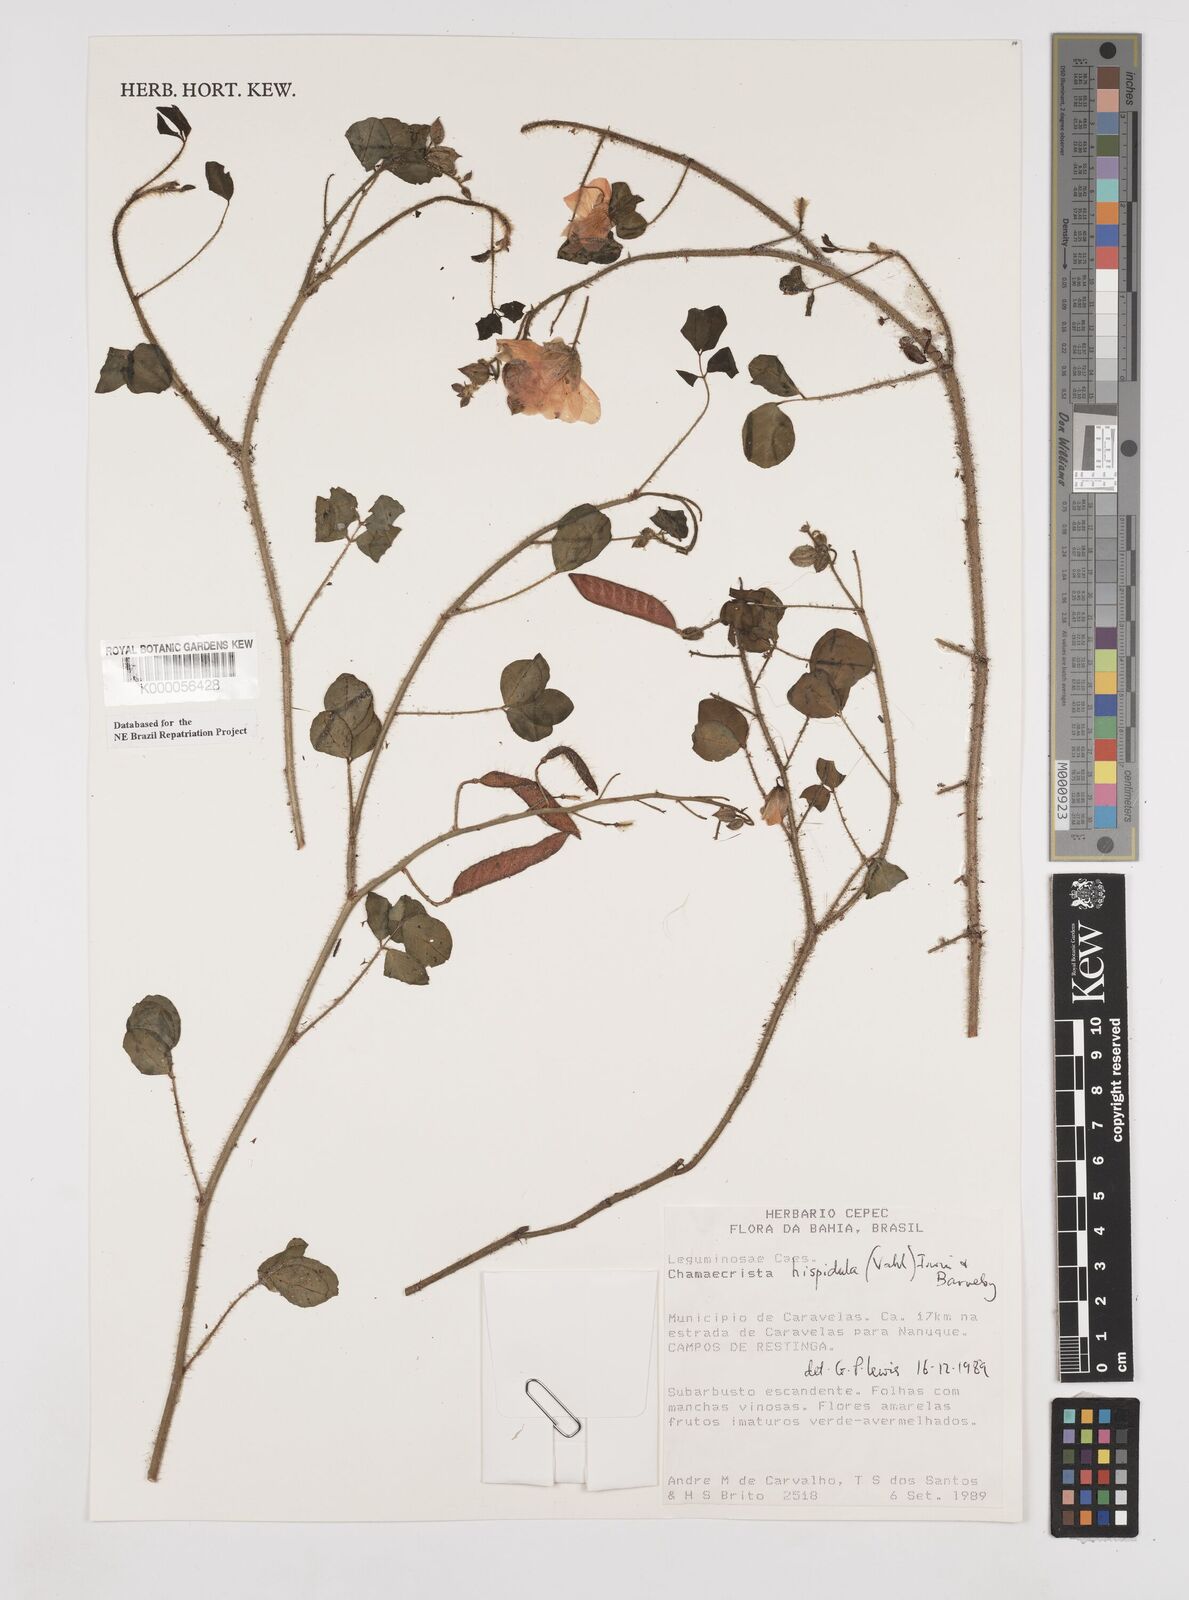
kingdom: Plantae
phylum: Tracheophyta
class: Magnoliopsida
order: Fabales
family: Fabaceae
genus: Chamaecrista
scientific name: Chamaecrista hispidula
